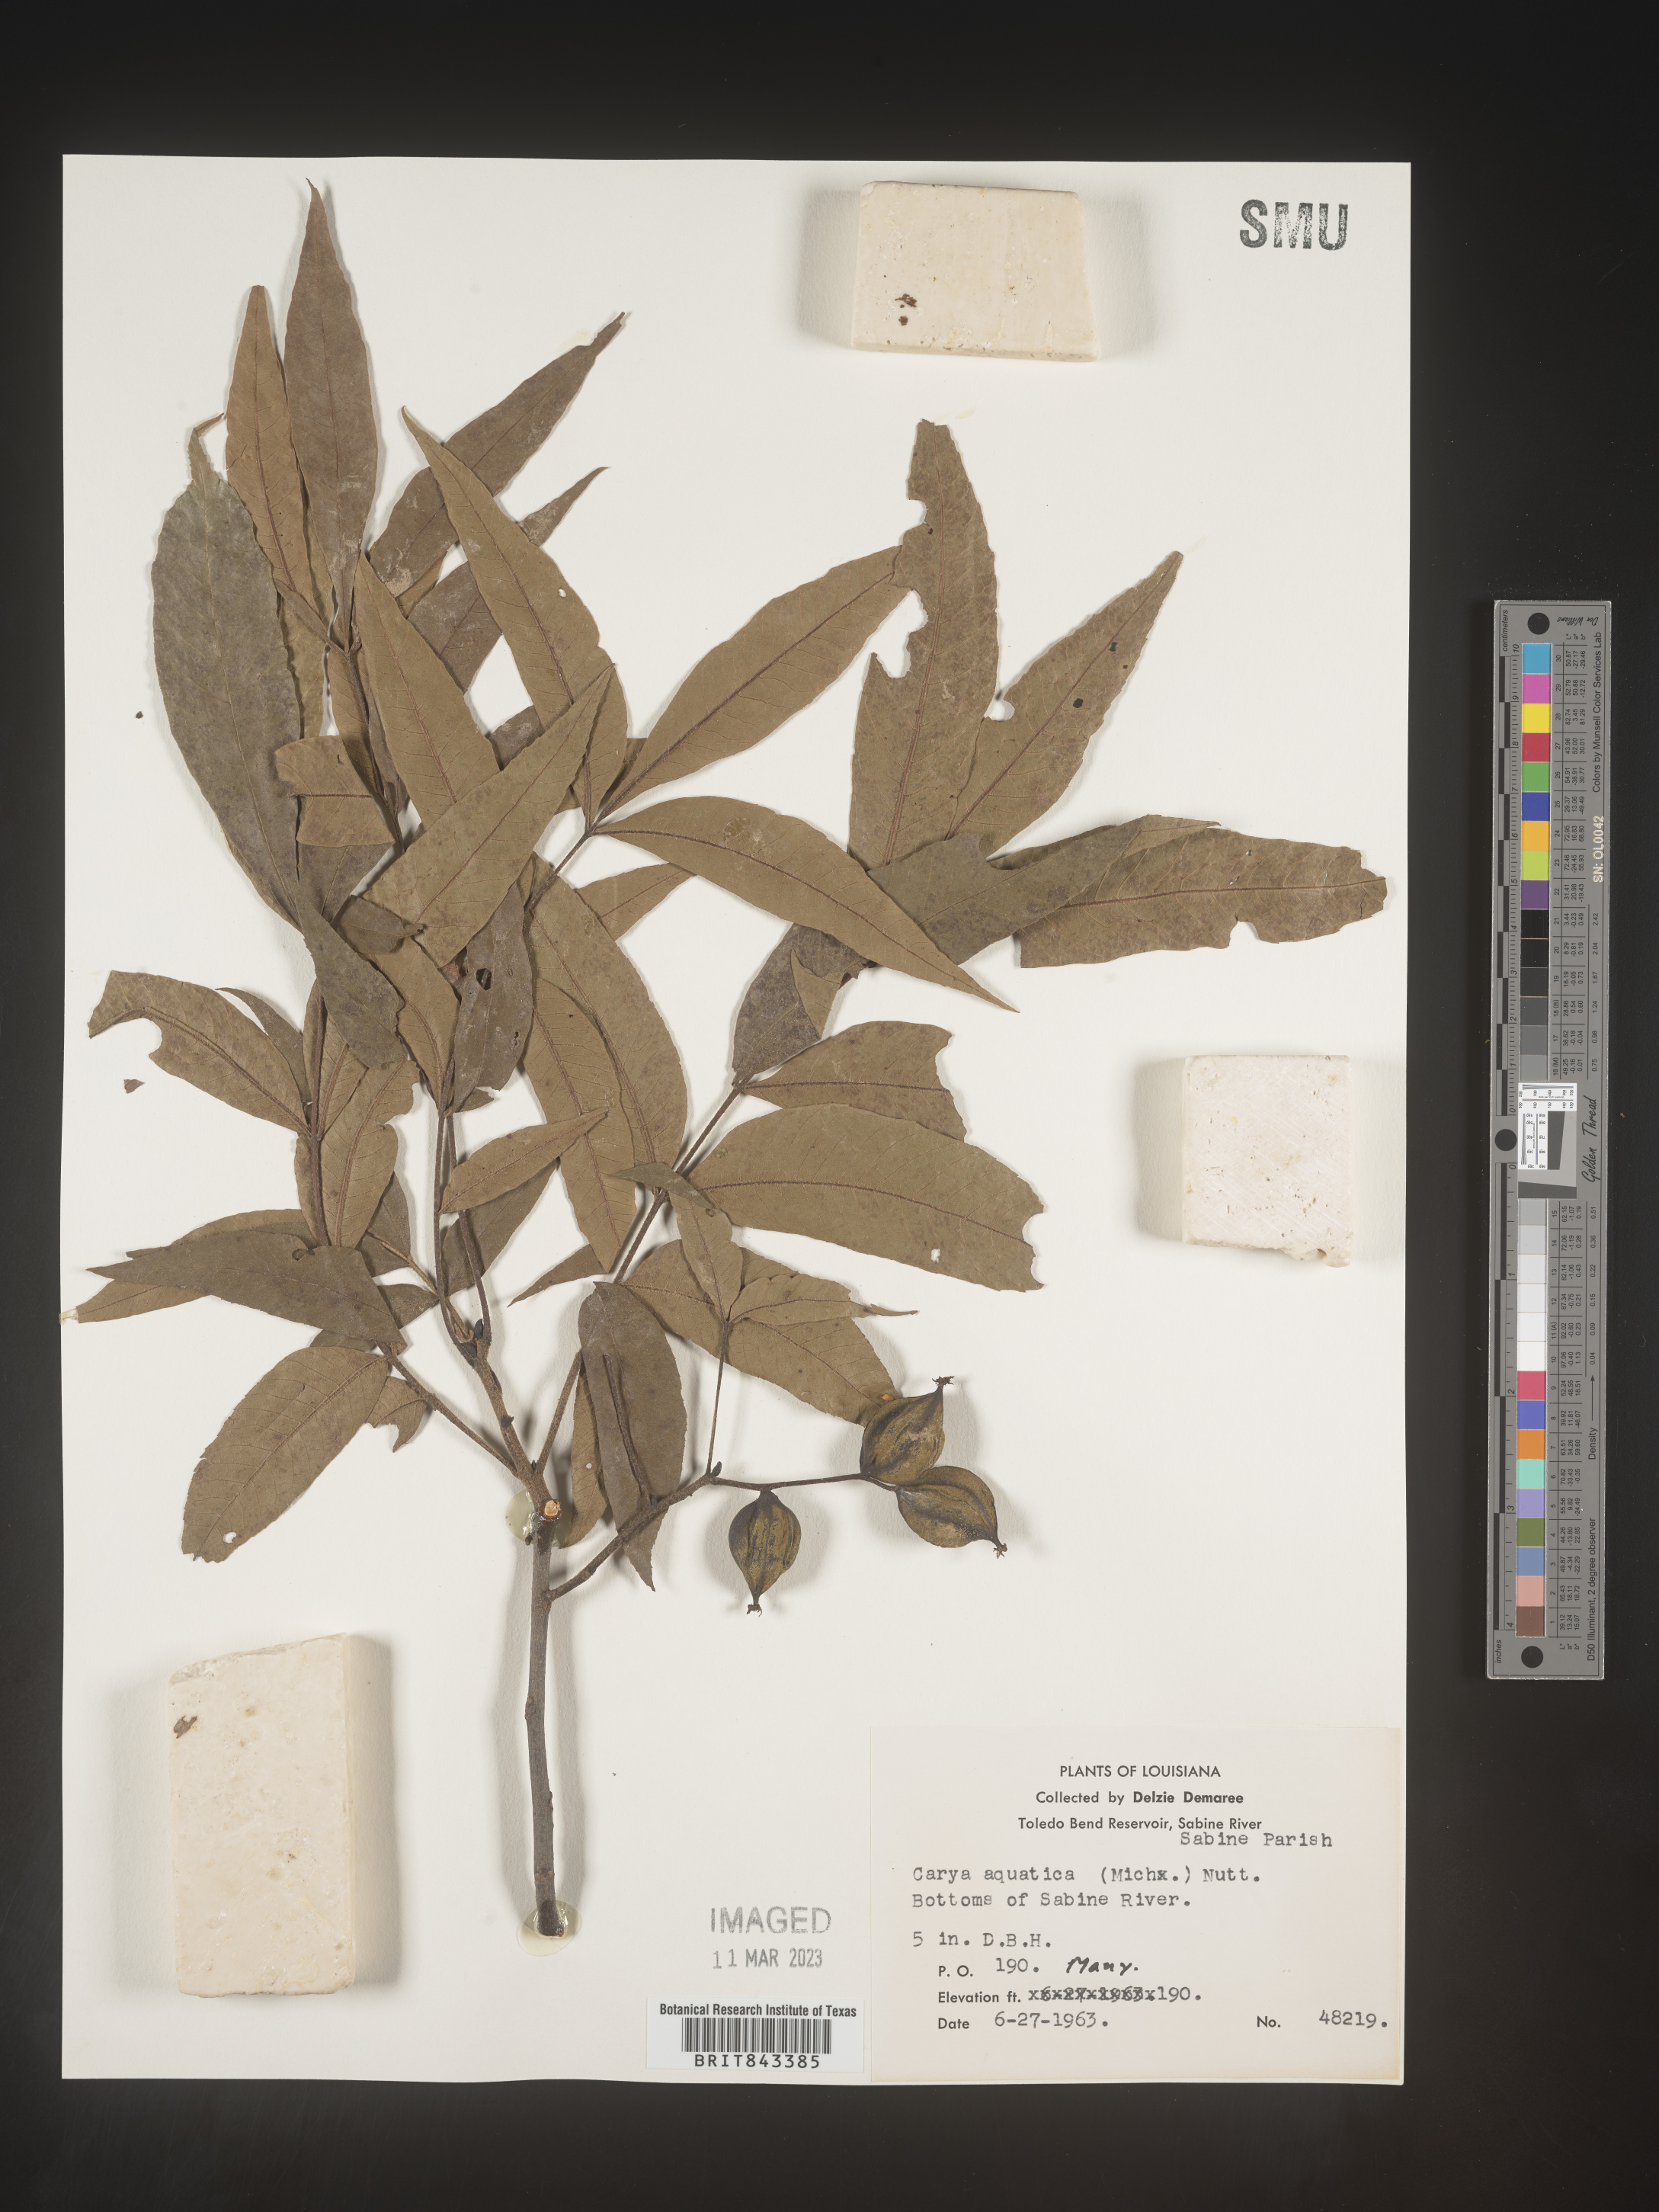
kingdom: Plantae
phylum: Tracheophyta
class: Magnoliopsida
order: Fagales
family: Juglandaceae
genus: Carya
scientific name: Carya aquatica
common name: Water hickory
